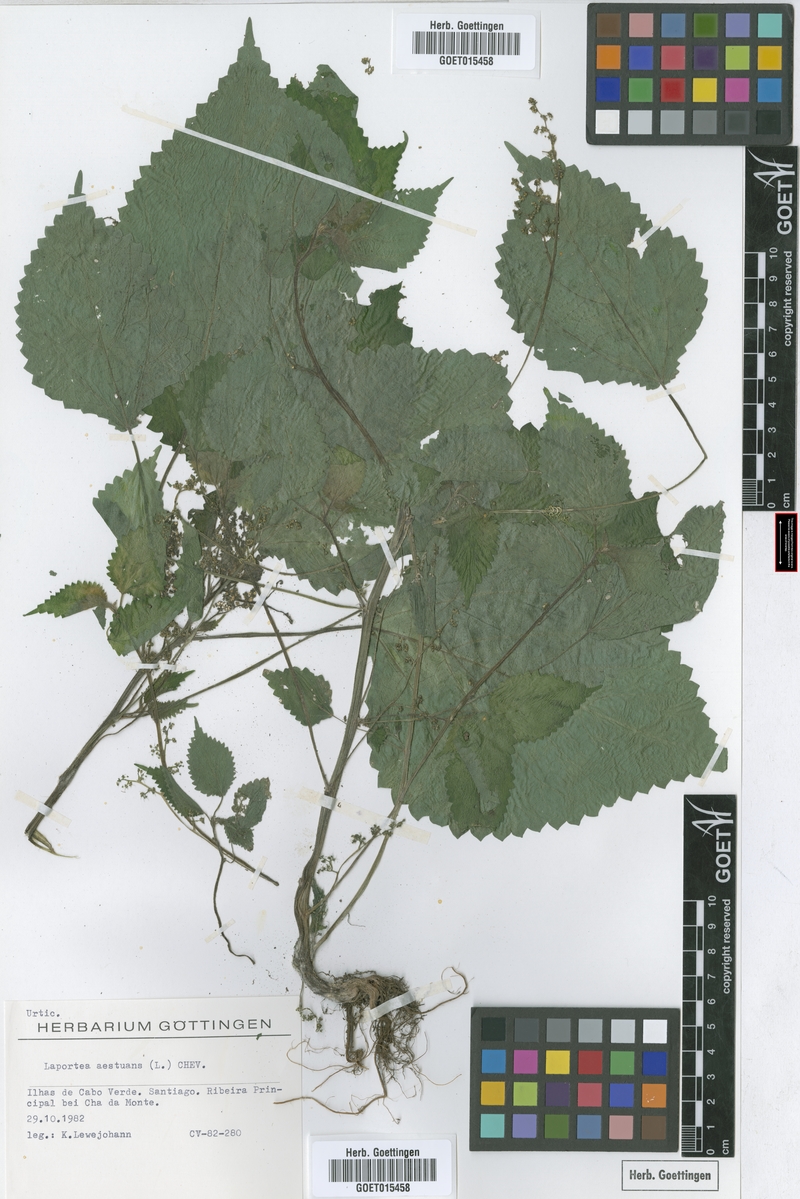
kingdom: Plantae
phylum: Tracheophyta
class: Magnoliopsida
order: Rosales
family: Urticaceae
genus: Laportea
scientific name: Laportea aestuans
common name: West indian woodnettle
